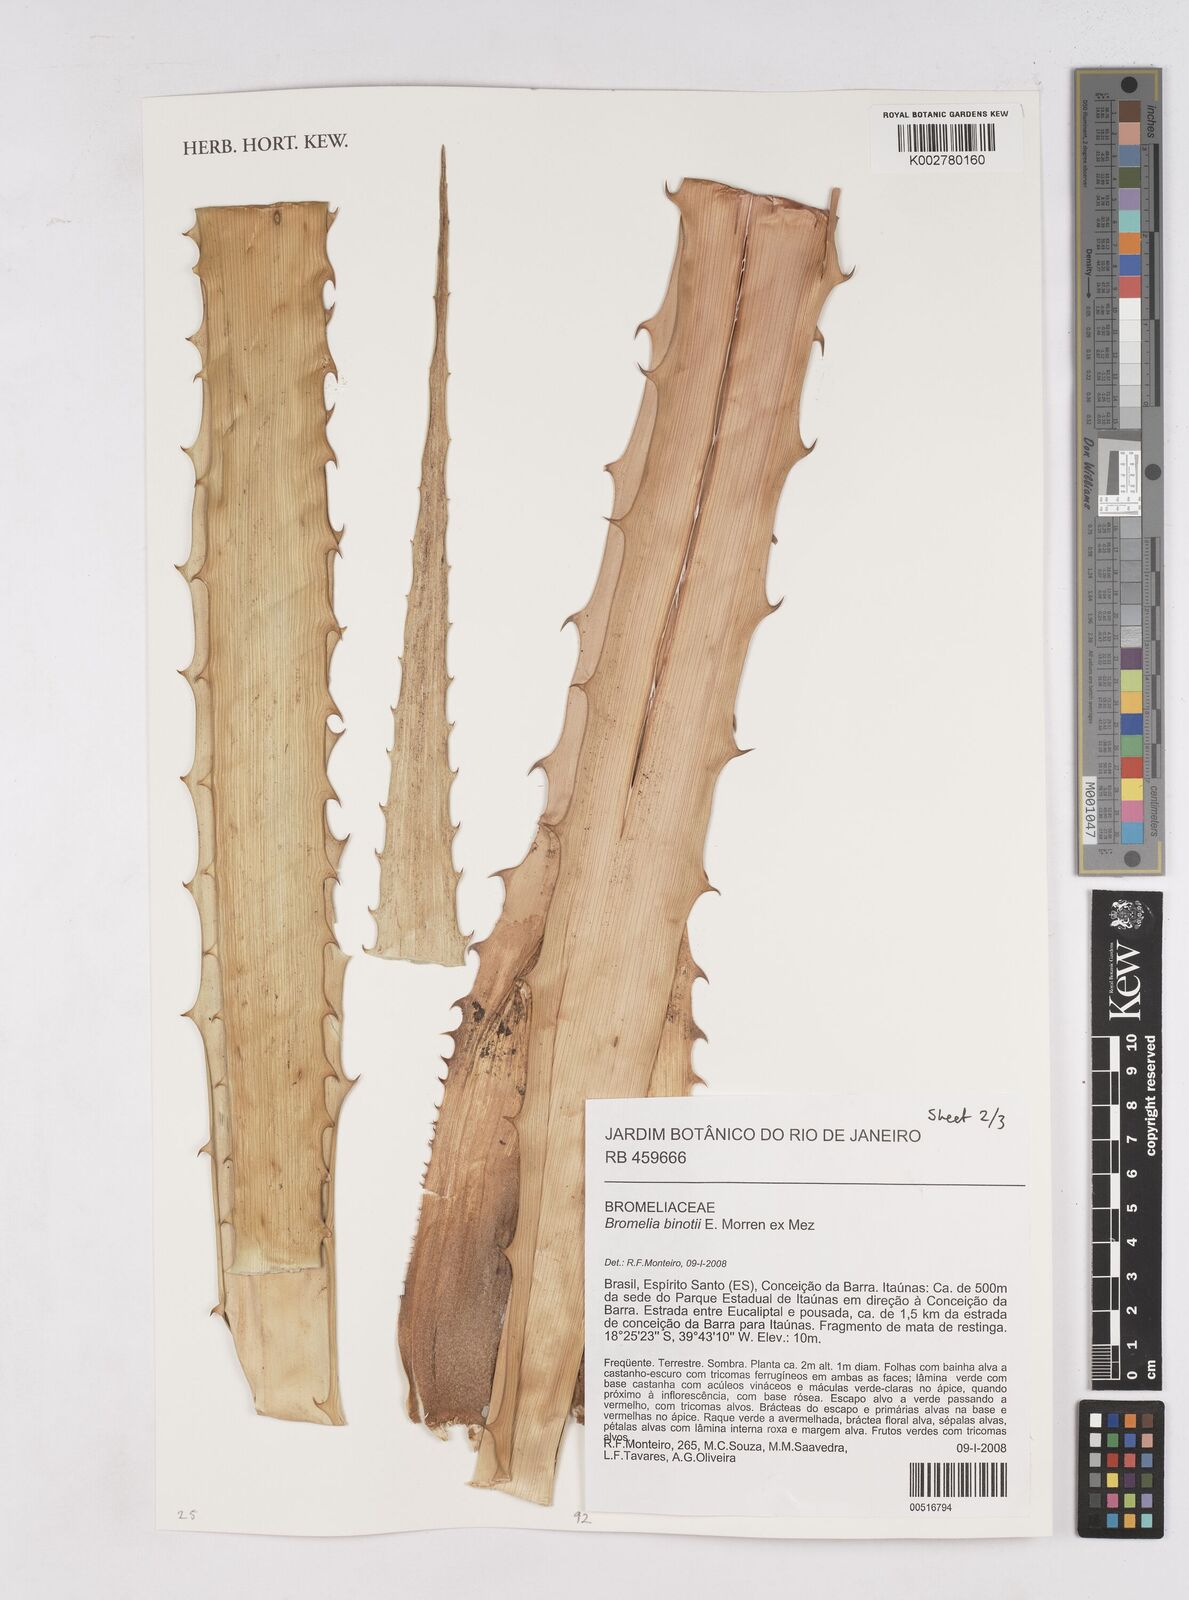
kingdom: Plantae
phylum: Tracheophyta
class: Liliopsida
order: Poales
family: Bromeliaceae
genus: Bromelia
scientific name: Bromelia binotii
